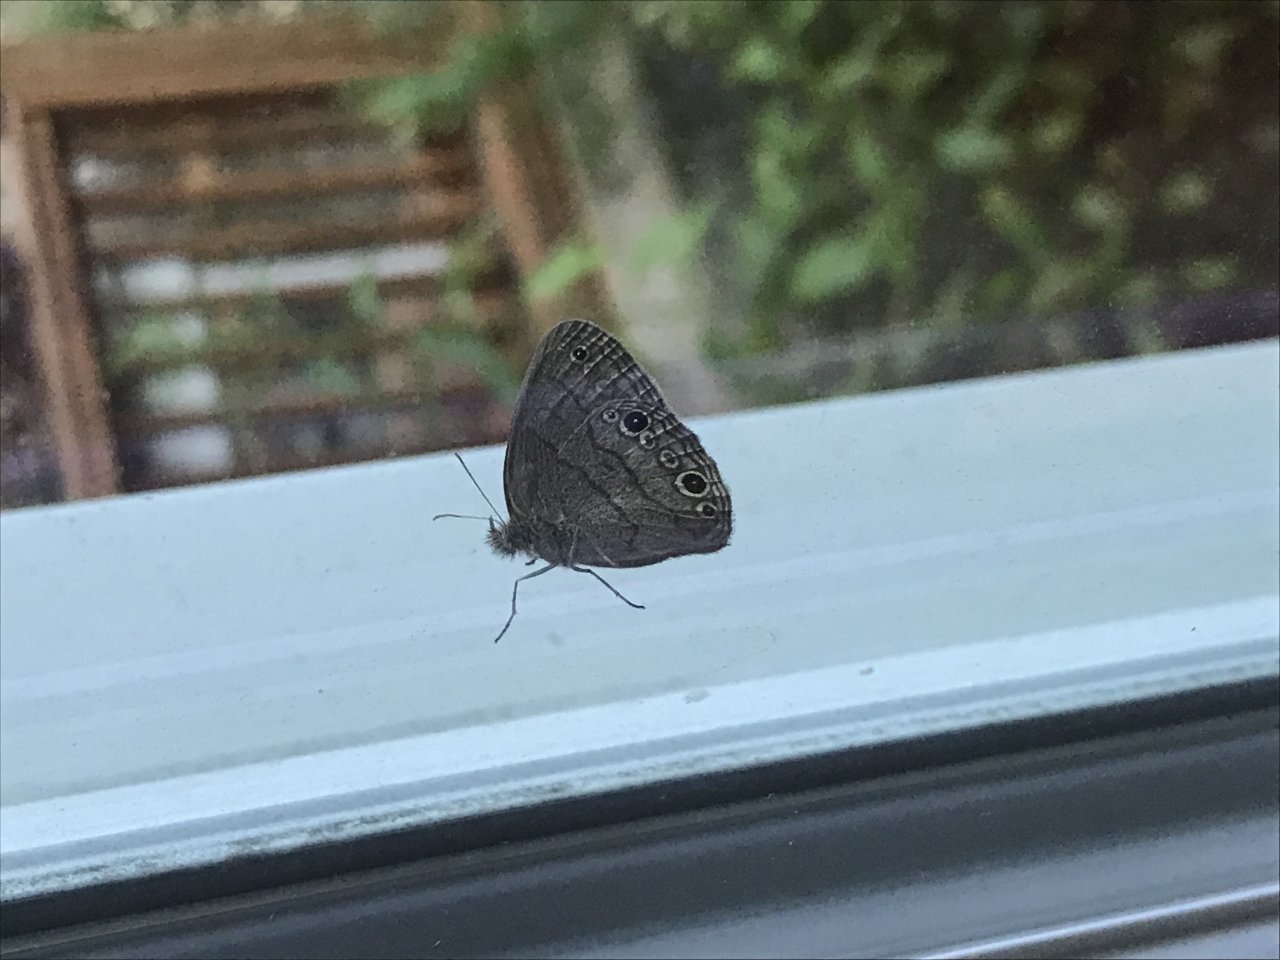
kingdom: Animalia
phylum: Arthropoda
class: Insecta
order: Lepidoptera
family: Nymphalidae
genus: Hermeuptychia
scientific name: Hermeuptychia hermes
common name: Carolina Satyr
